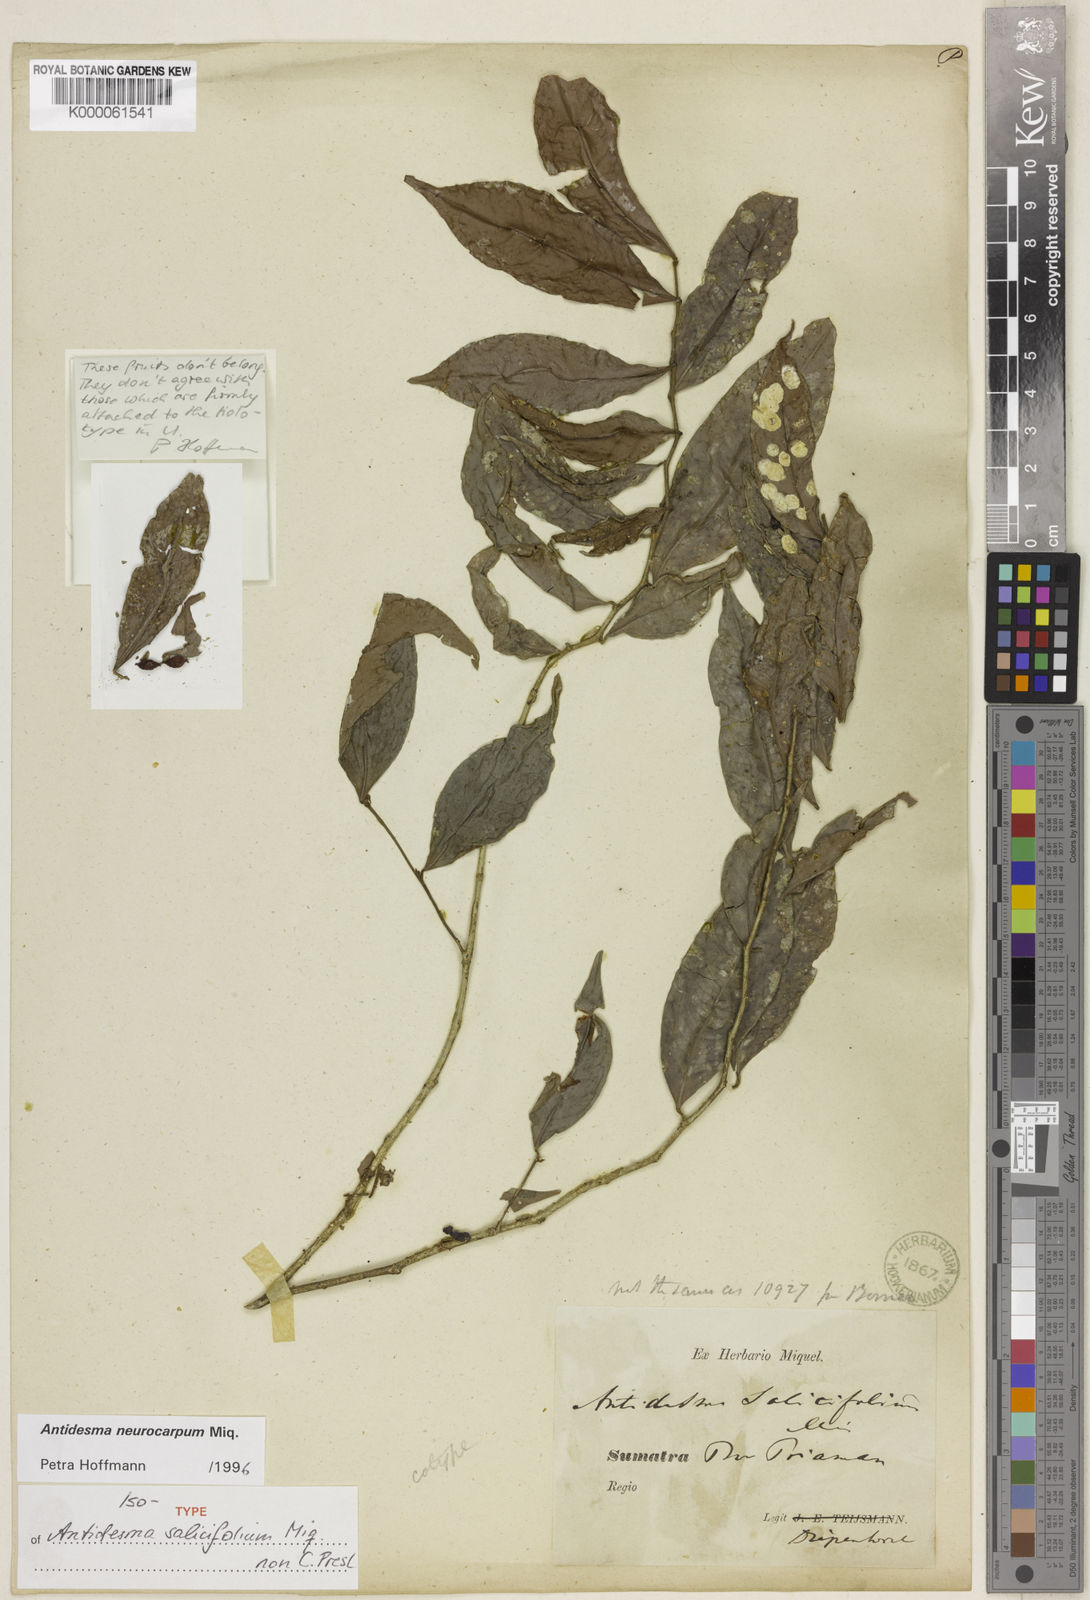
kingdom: Plantae
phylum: Tracheophyta
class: Magnoliopsida
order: Malpighiales
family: Phyllanthaceae
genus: Antidesma
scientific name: Antidesma neurocarpum
